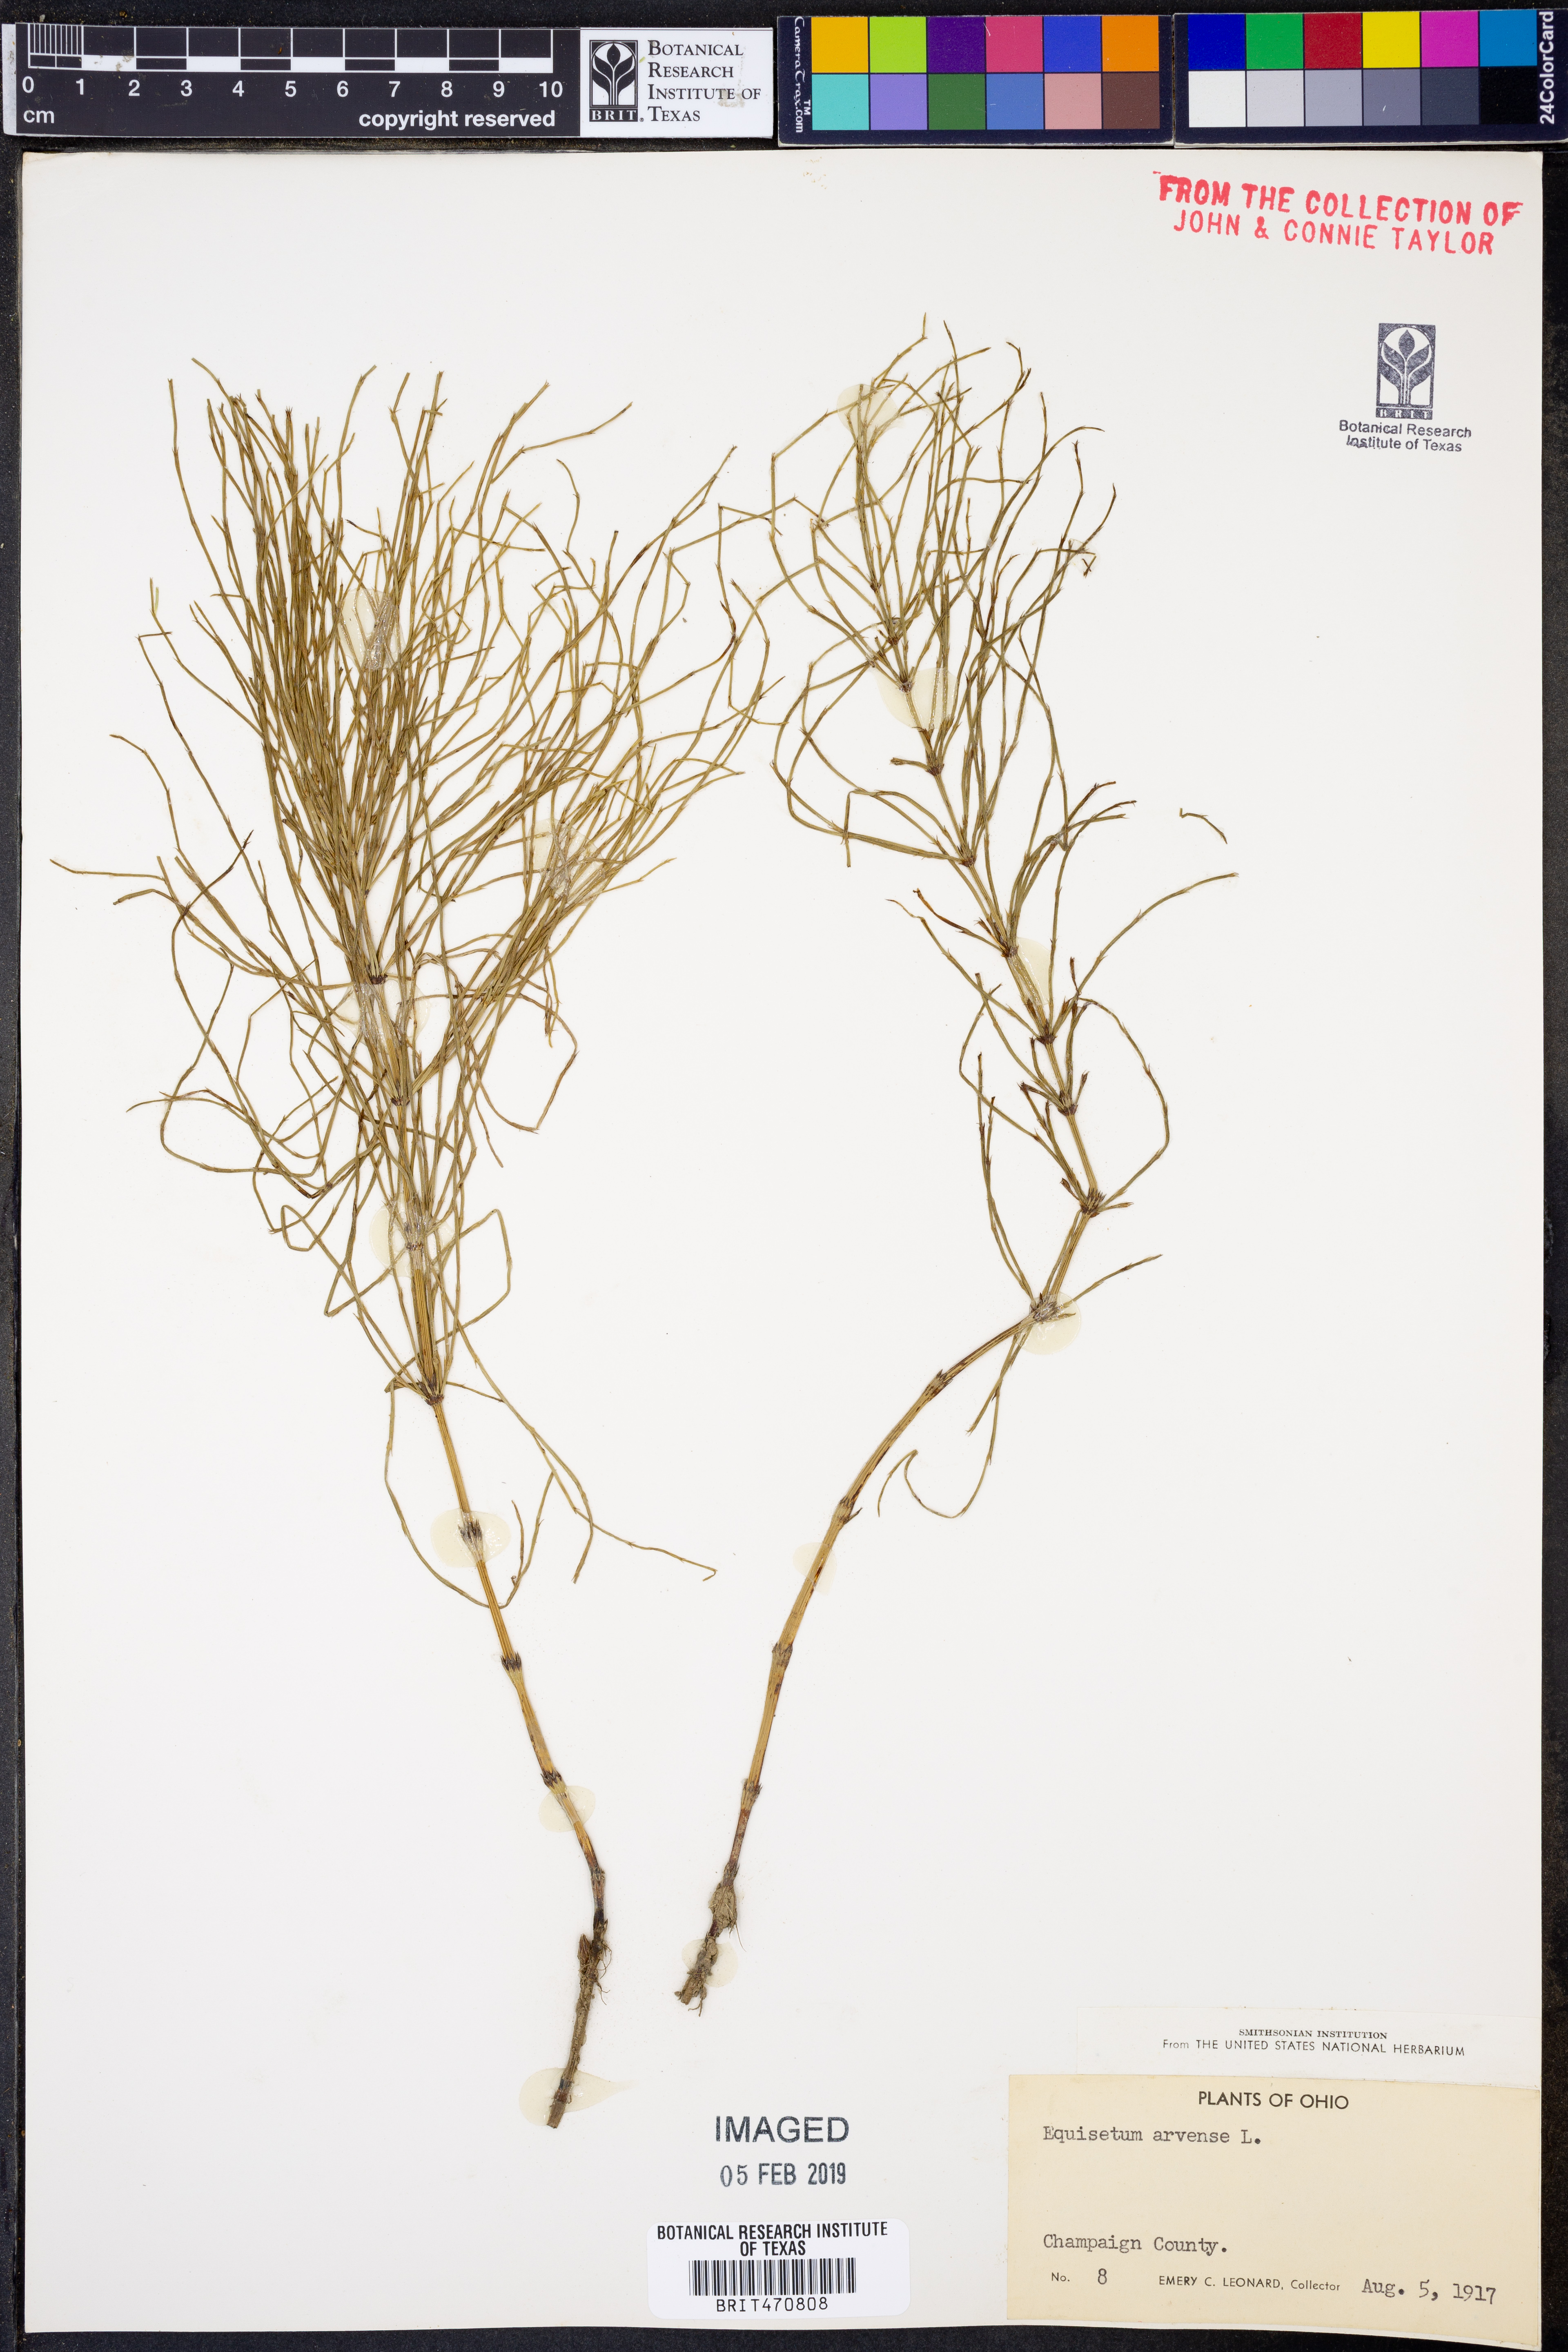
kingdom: Plantae
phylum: Tracheophyta
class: Polypodiopsida
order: Equisetales
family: Equisetaceae
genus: Equisetum
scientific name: Equisetum arvense
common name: Field horsetail
